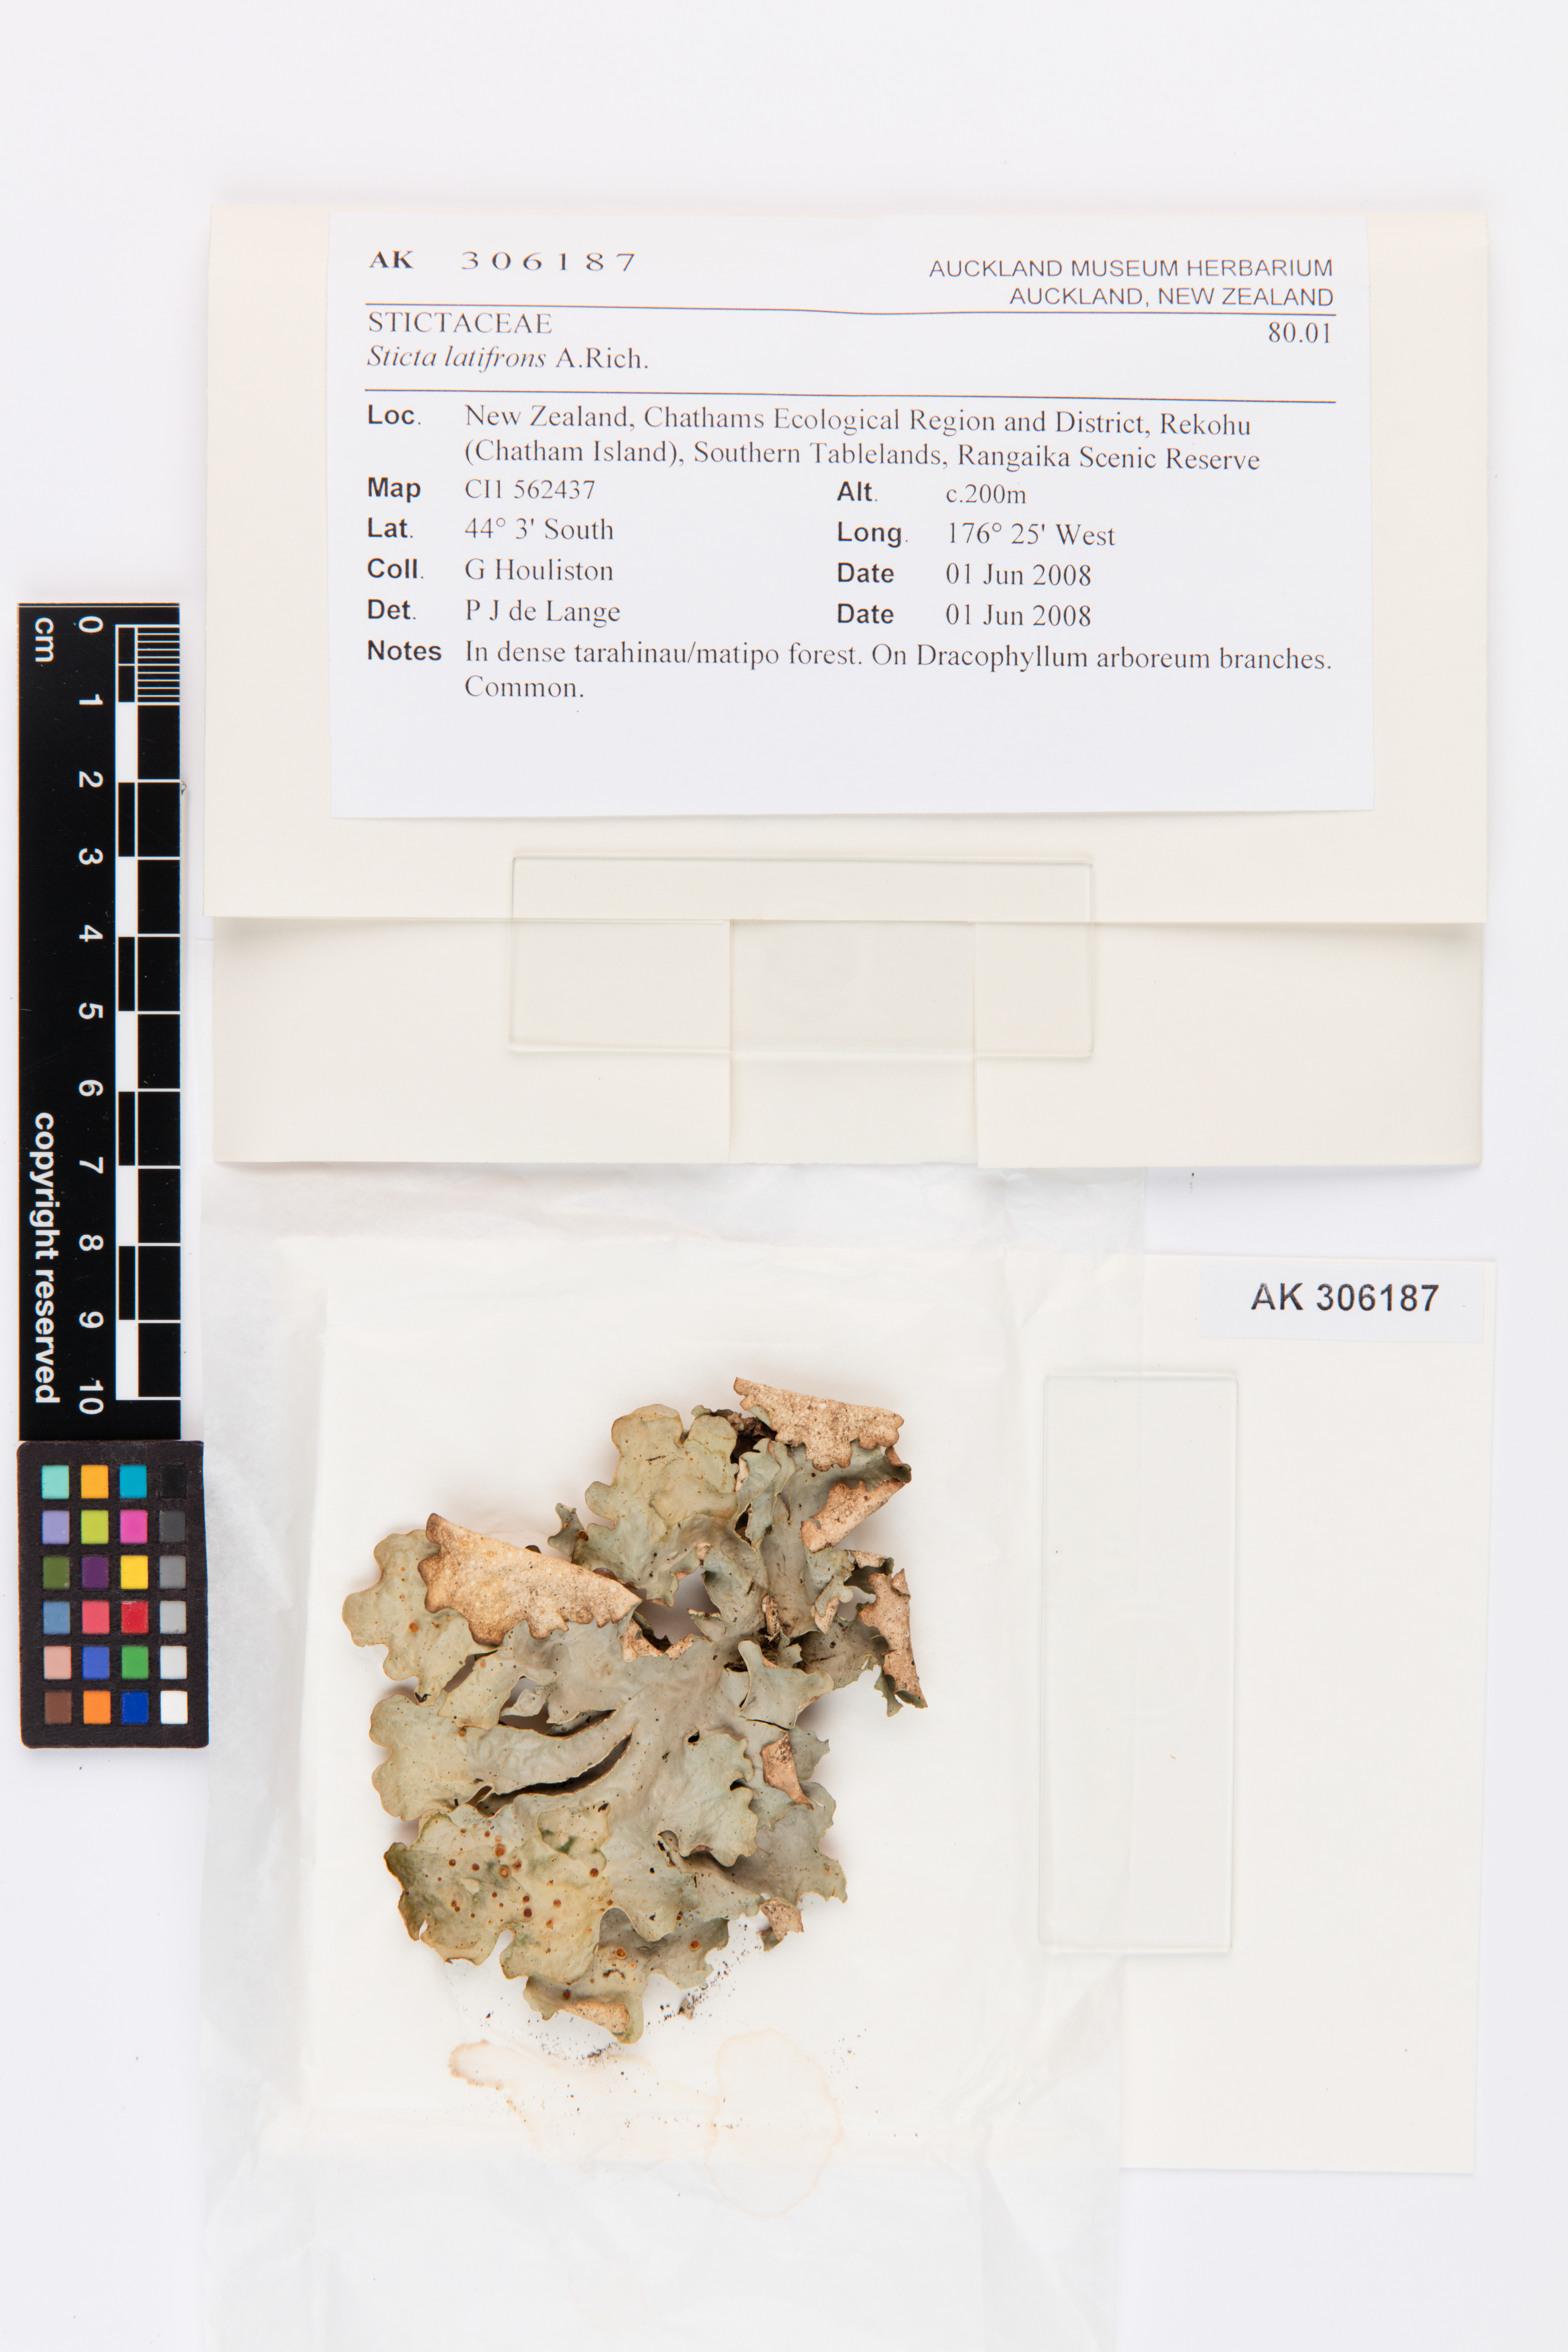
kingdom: Fungi
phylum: Ascomycota
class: Lecanoromycetes
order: Peltigerales
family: Lobariaceae
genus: Sticta
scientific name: Sticta latifrons
